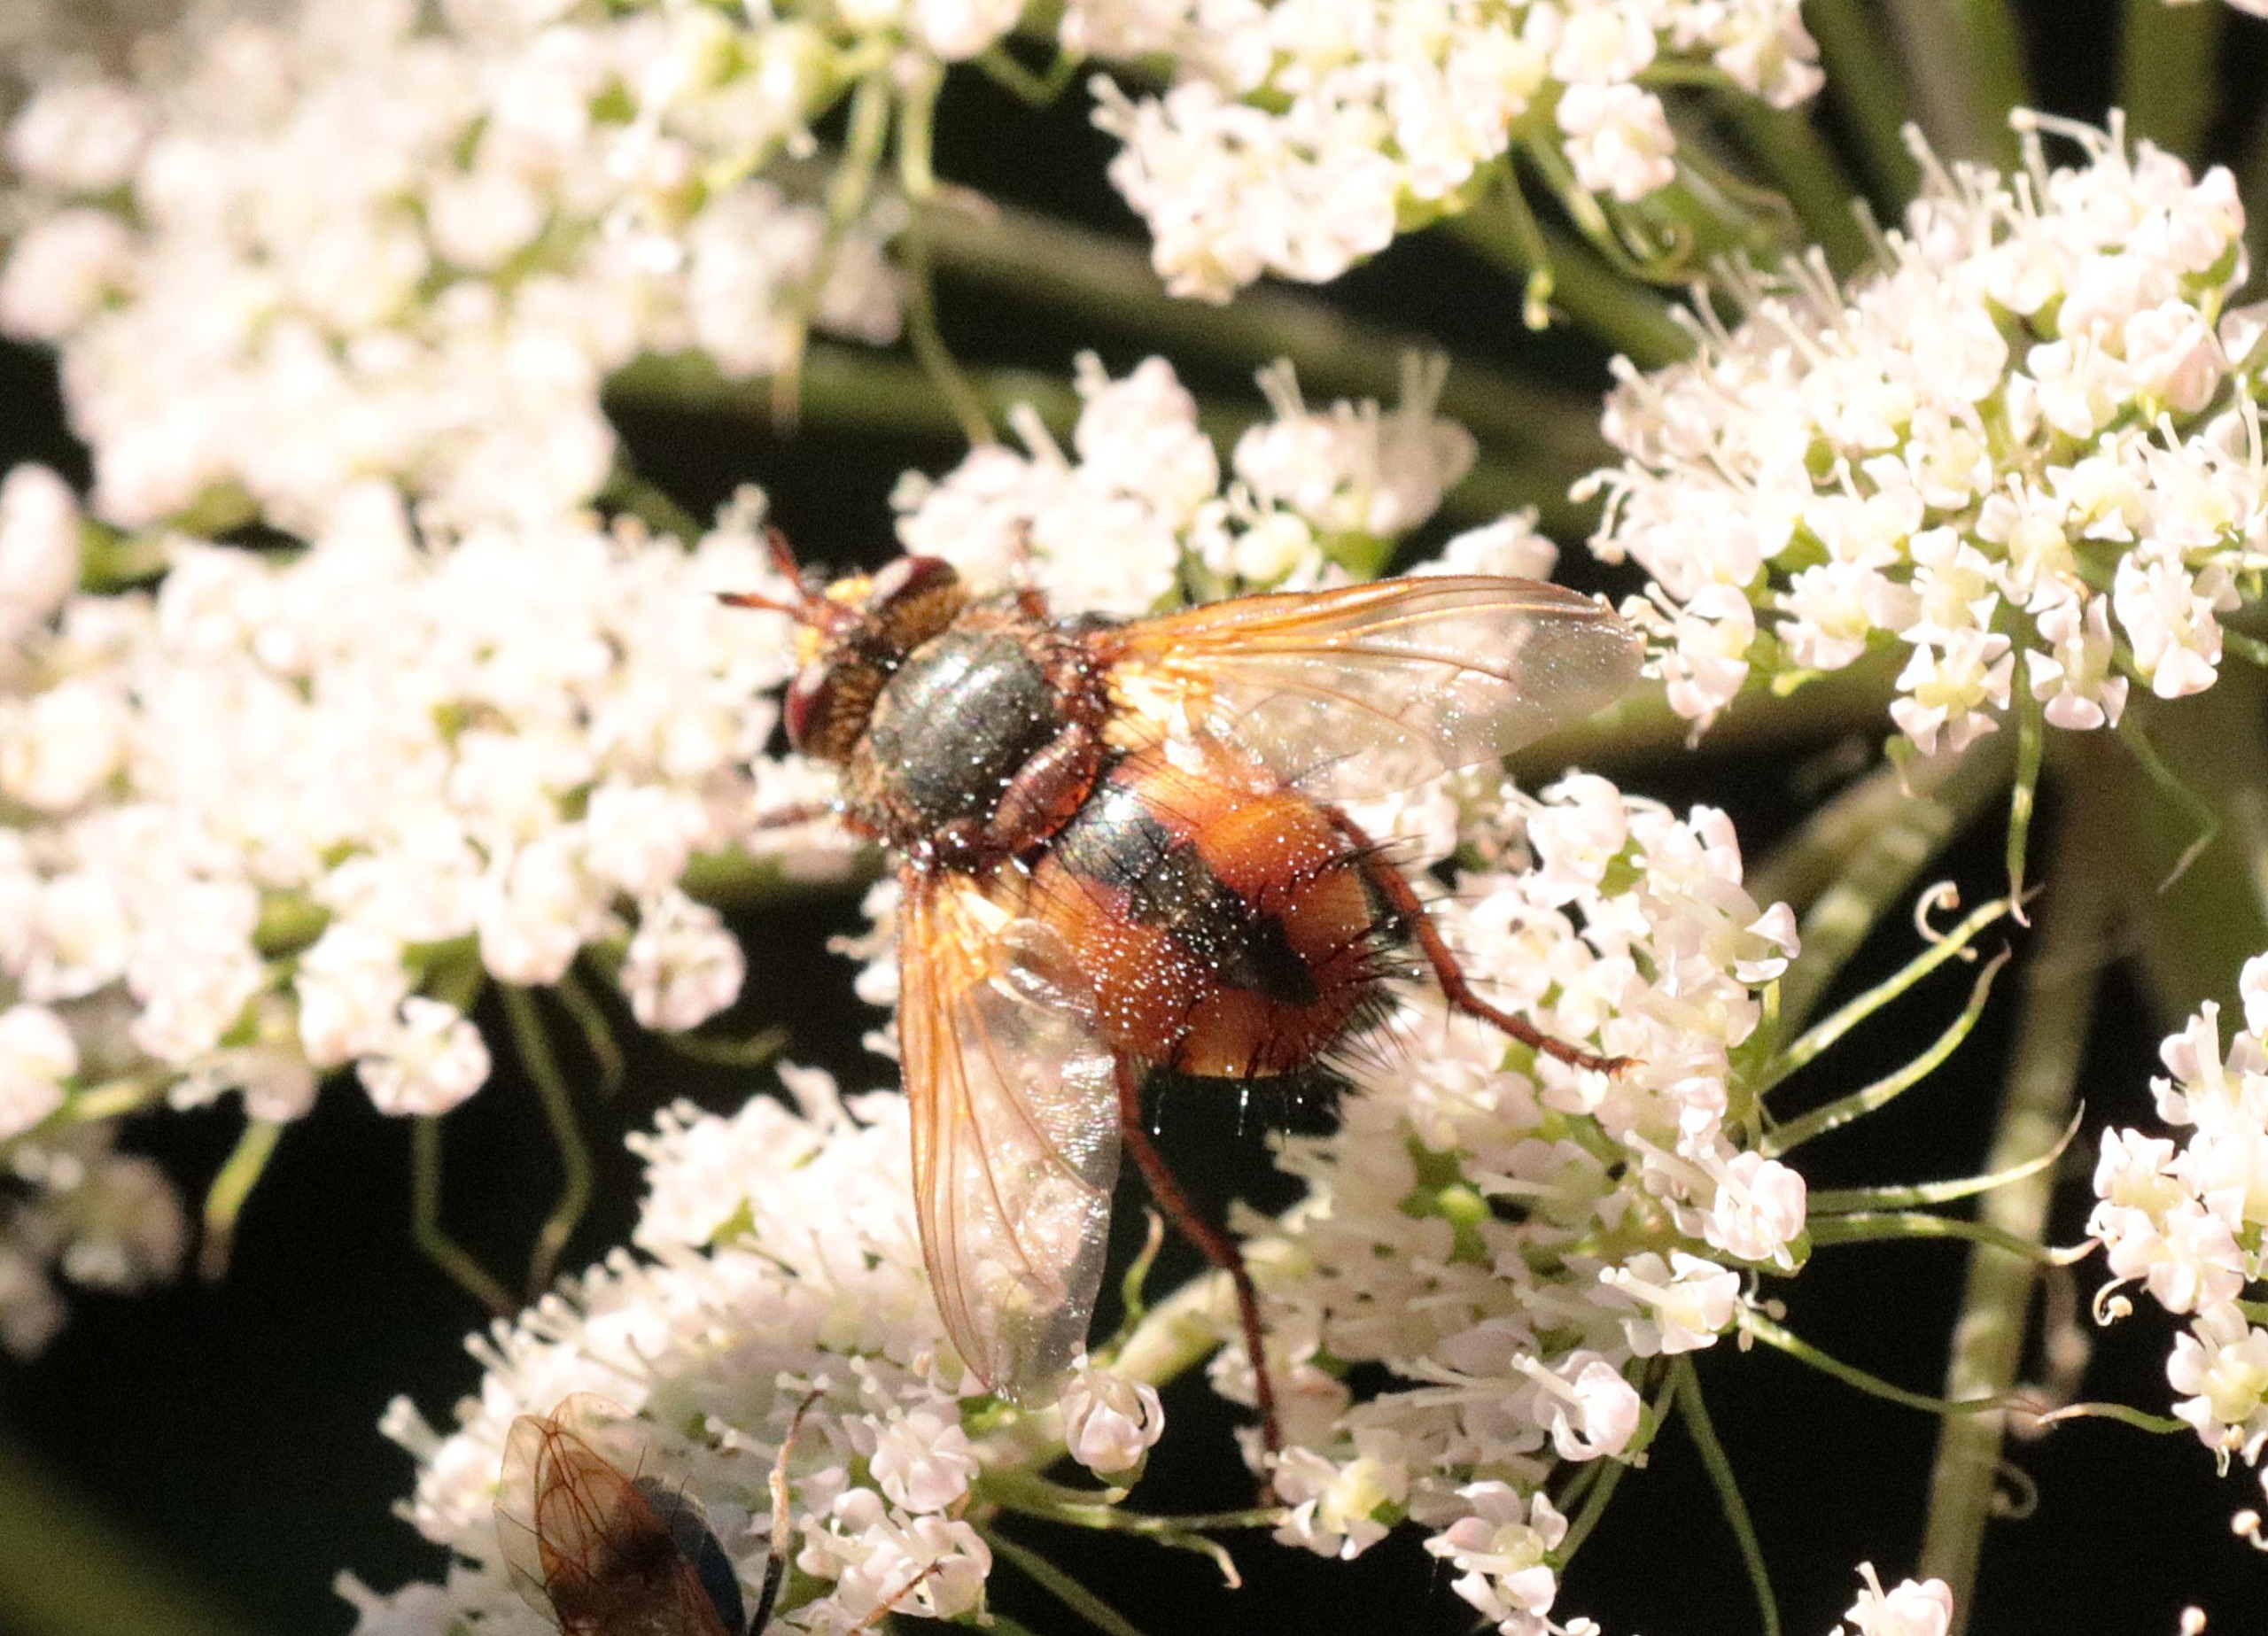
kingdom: Animalia
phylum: Arthropoda
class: Insecta
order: Diptera
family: Tachinidae
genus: Tachina
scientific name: Tachina fera
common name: Mellemfluen oskar
